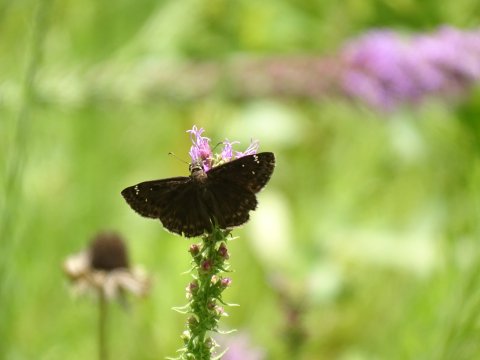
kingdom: Animalia
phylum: Arthropoda
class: Insecta
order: Lepidoptera
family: Hesperiidae
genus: Gesta
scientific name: Gesta
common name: Horace's Duskywing
